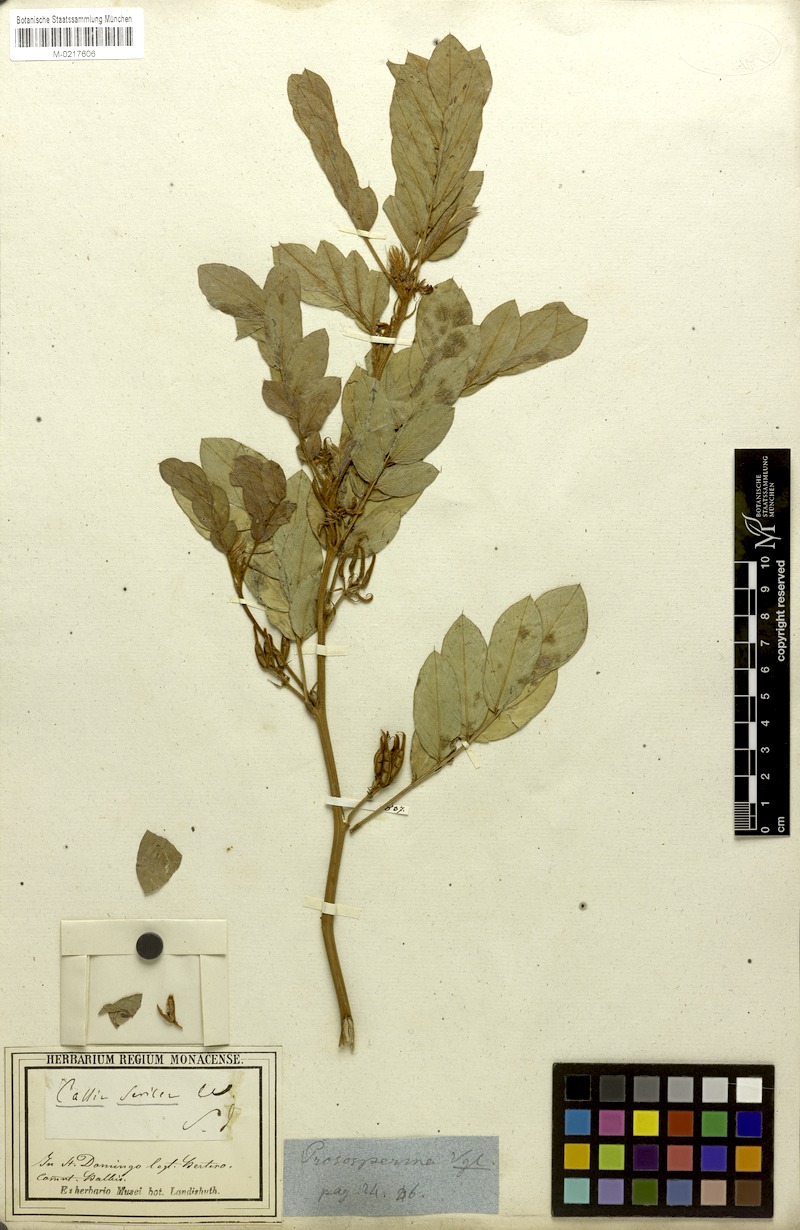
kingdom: Plantae
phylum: Tracheophyta
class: Magnoliopsida
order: Fabales
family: Fabaceae
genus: Senna
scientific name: Senna uniflora
